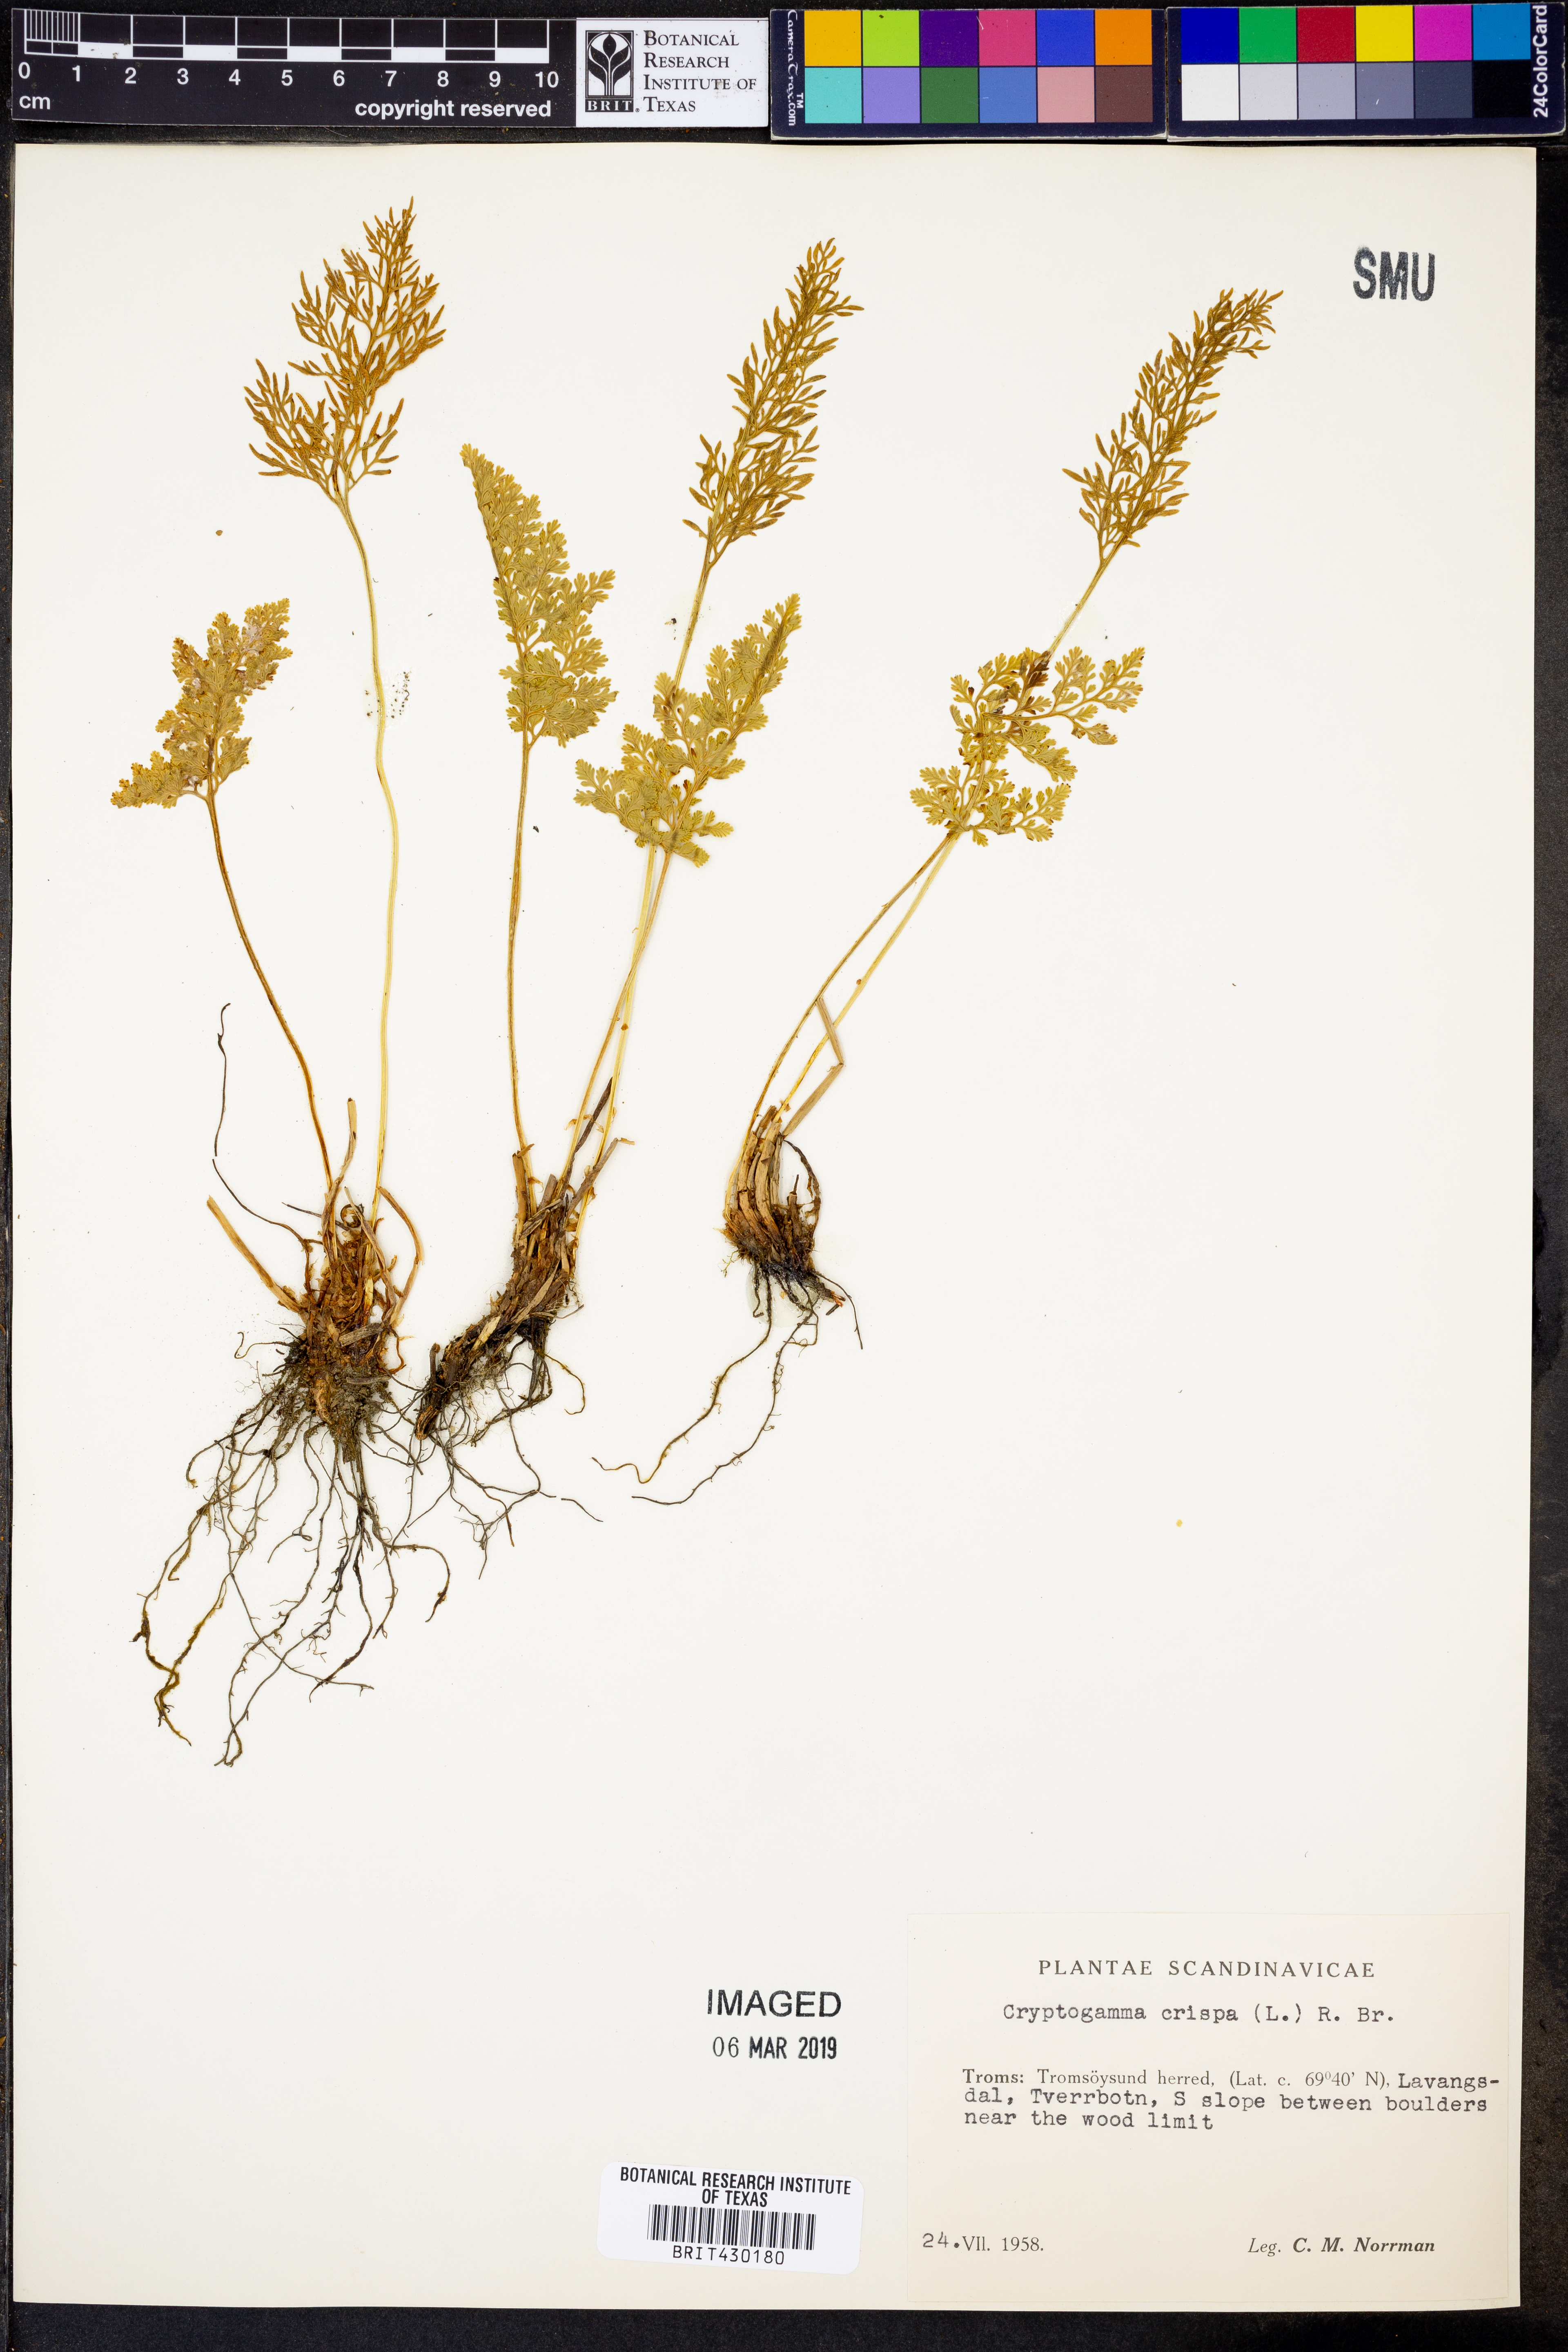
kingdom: Plantae
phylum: Tracheophyta
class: Polypodiopsida
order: Polypodiales
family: Pteridaceae
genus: Cryptogramma
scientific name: Cryptogramma crispa
